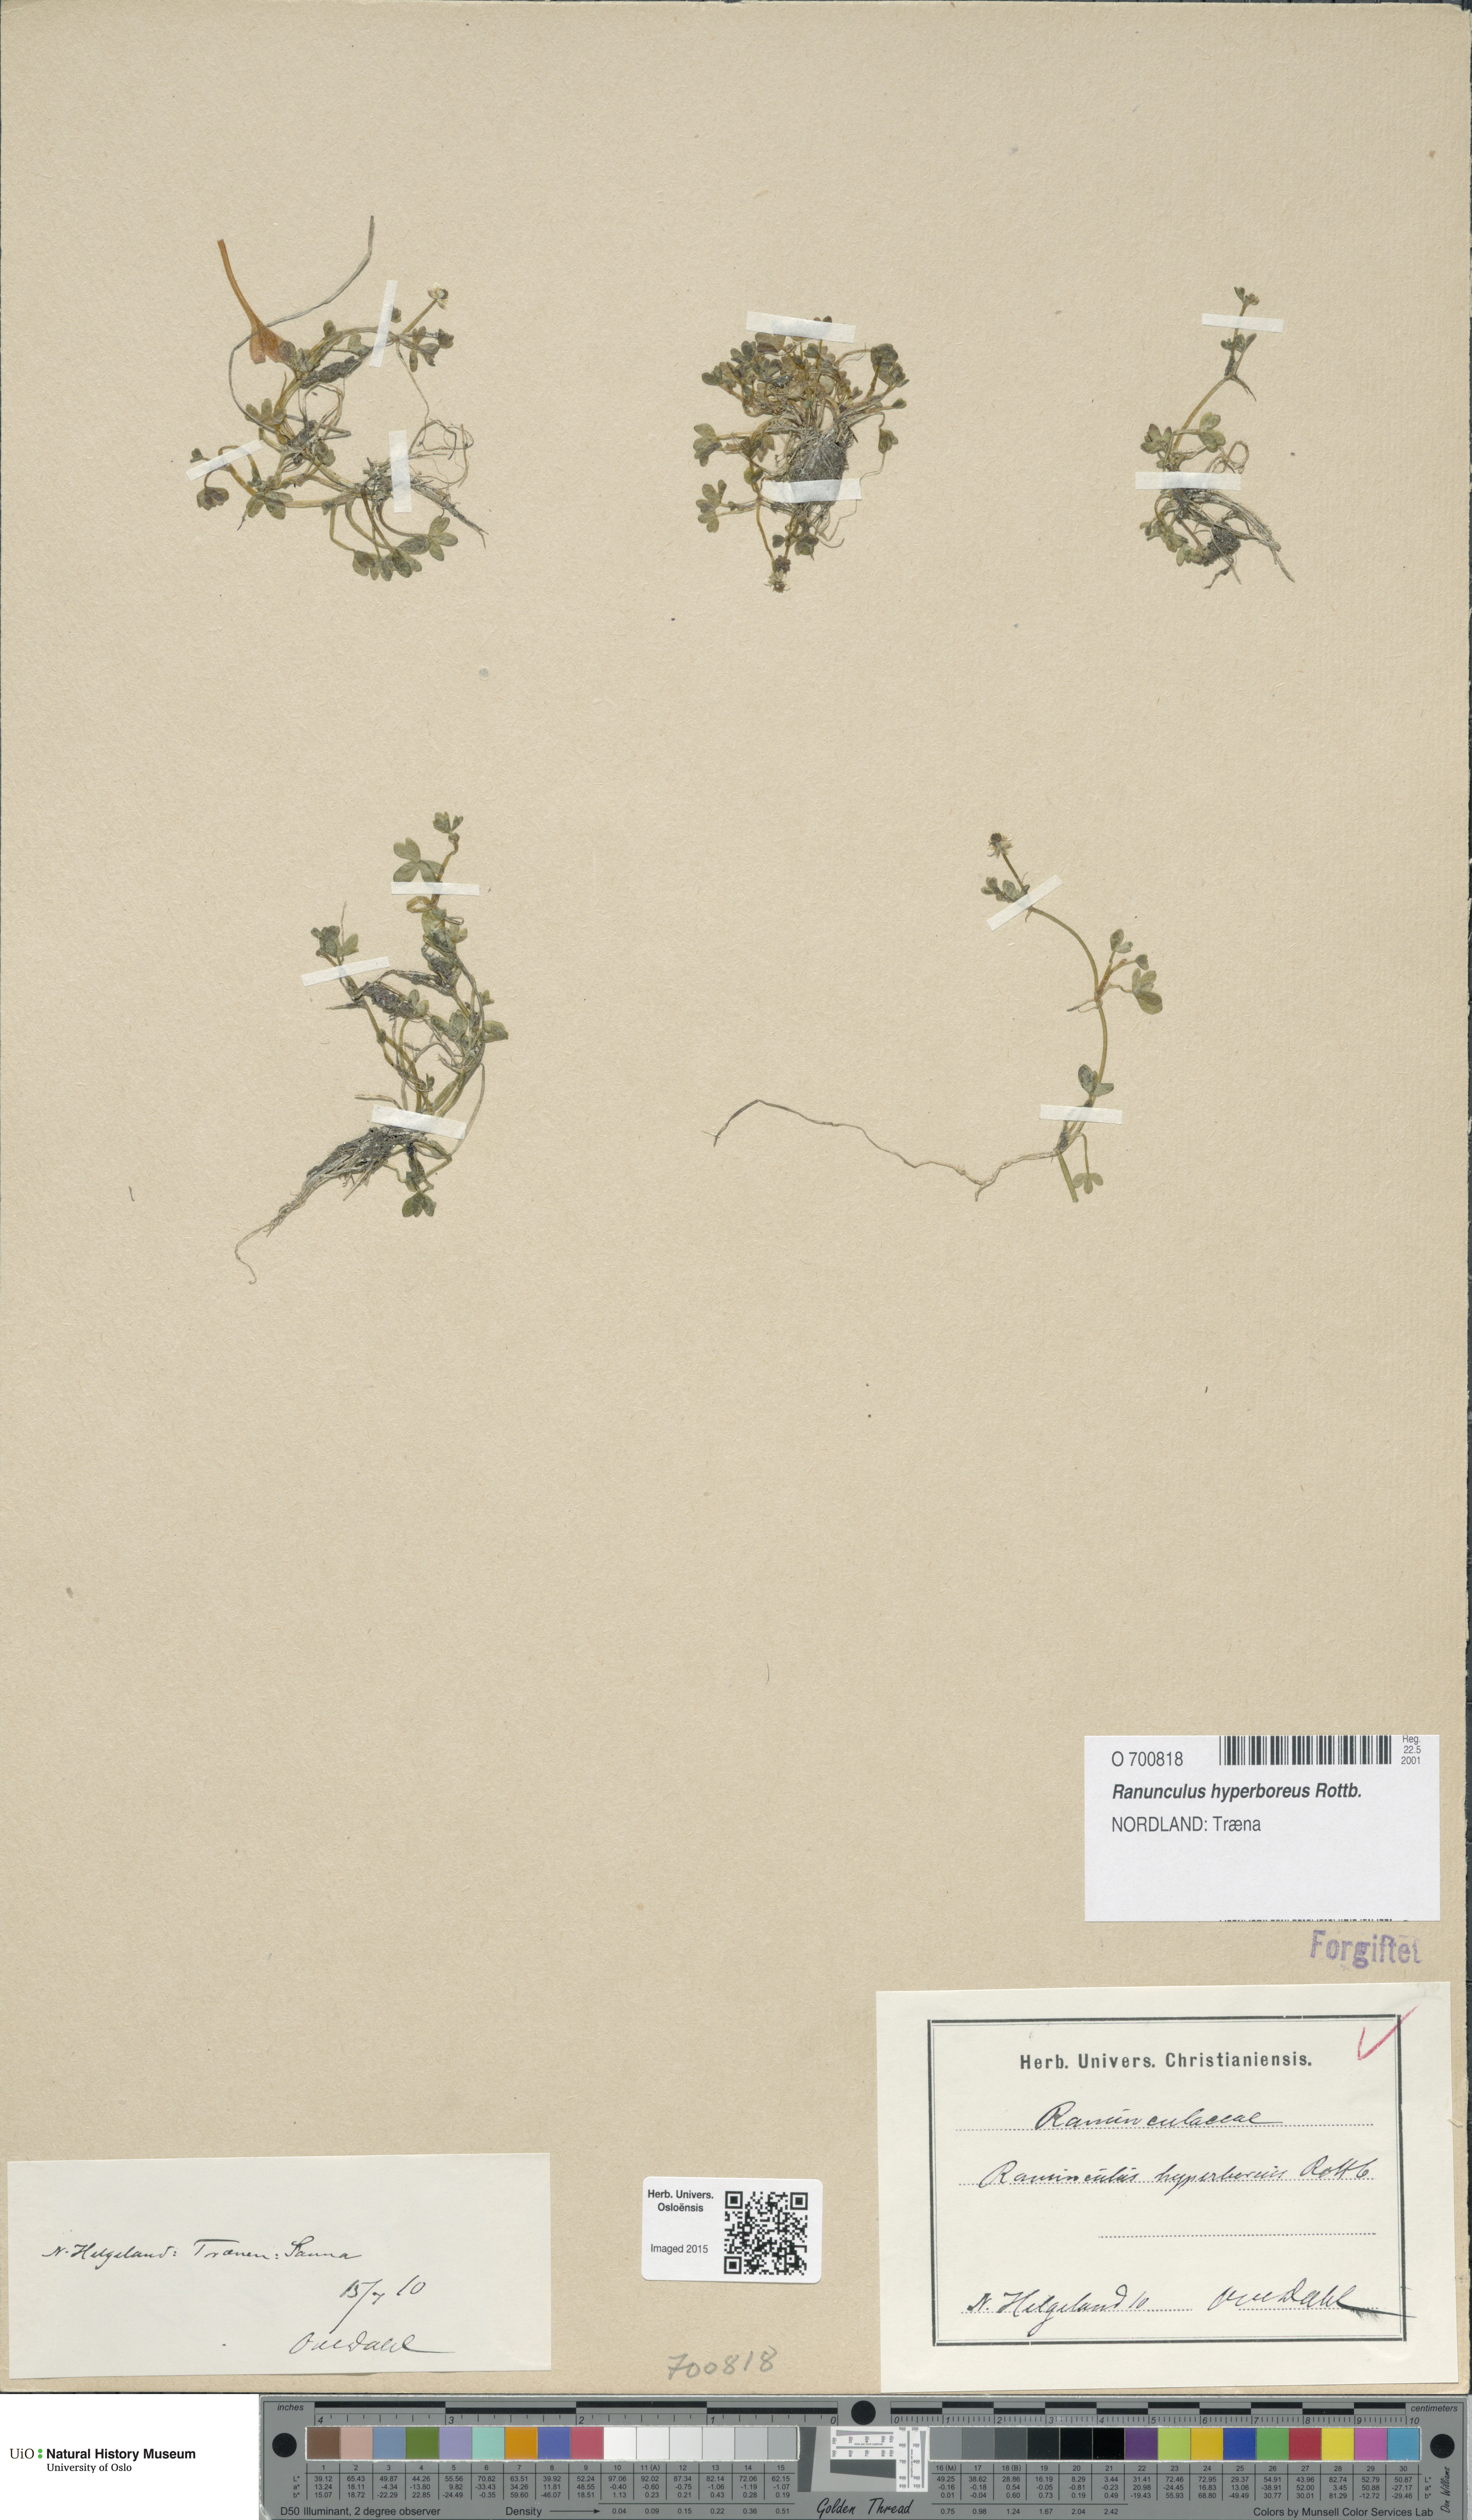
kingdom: Plantae
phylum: Tracheophyta
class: Magnoliopsida
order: Ranunculales
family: Ranunculaceae
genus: Ranunculus
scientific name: Ranunculus hyperboreus
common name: Arctic buttercup
